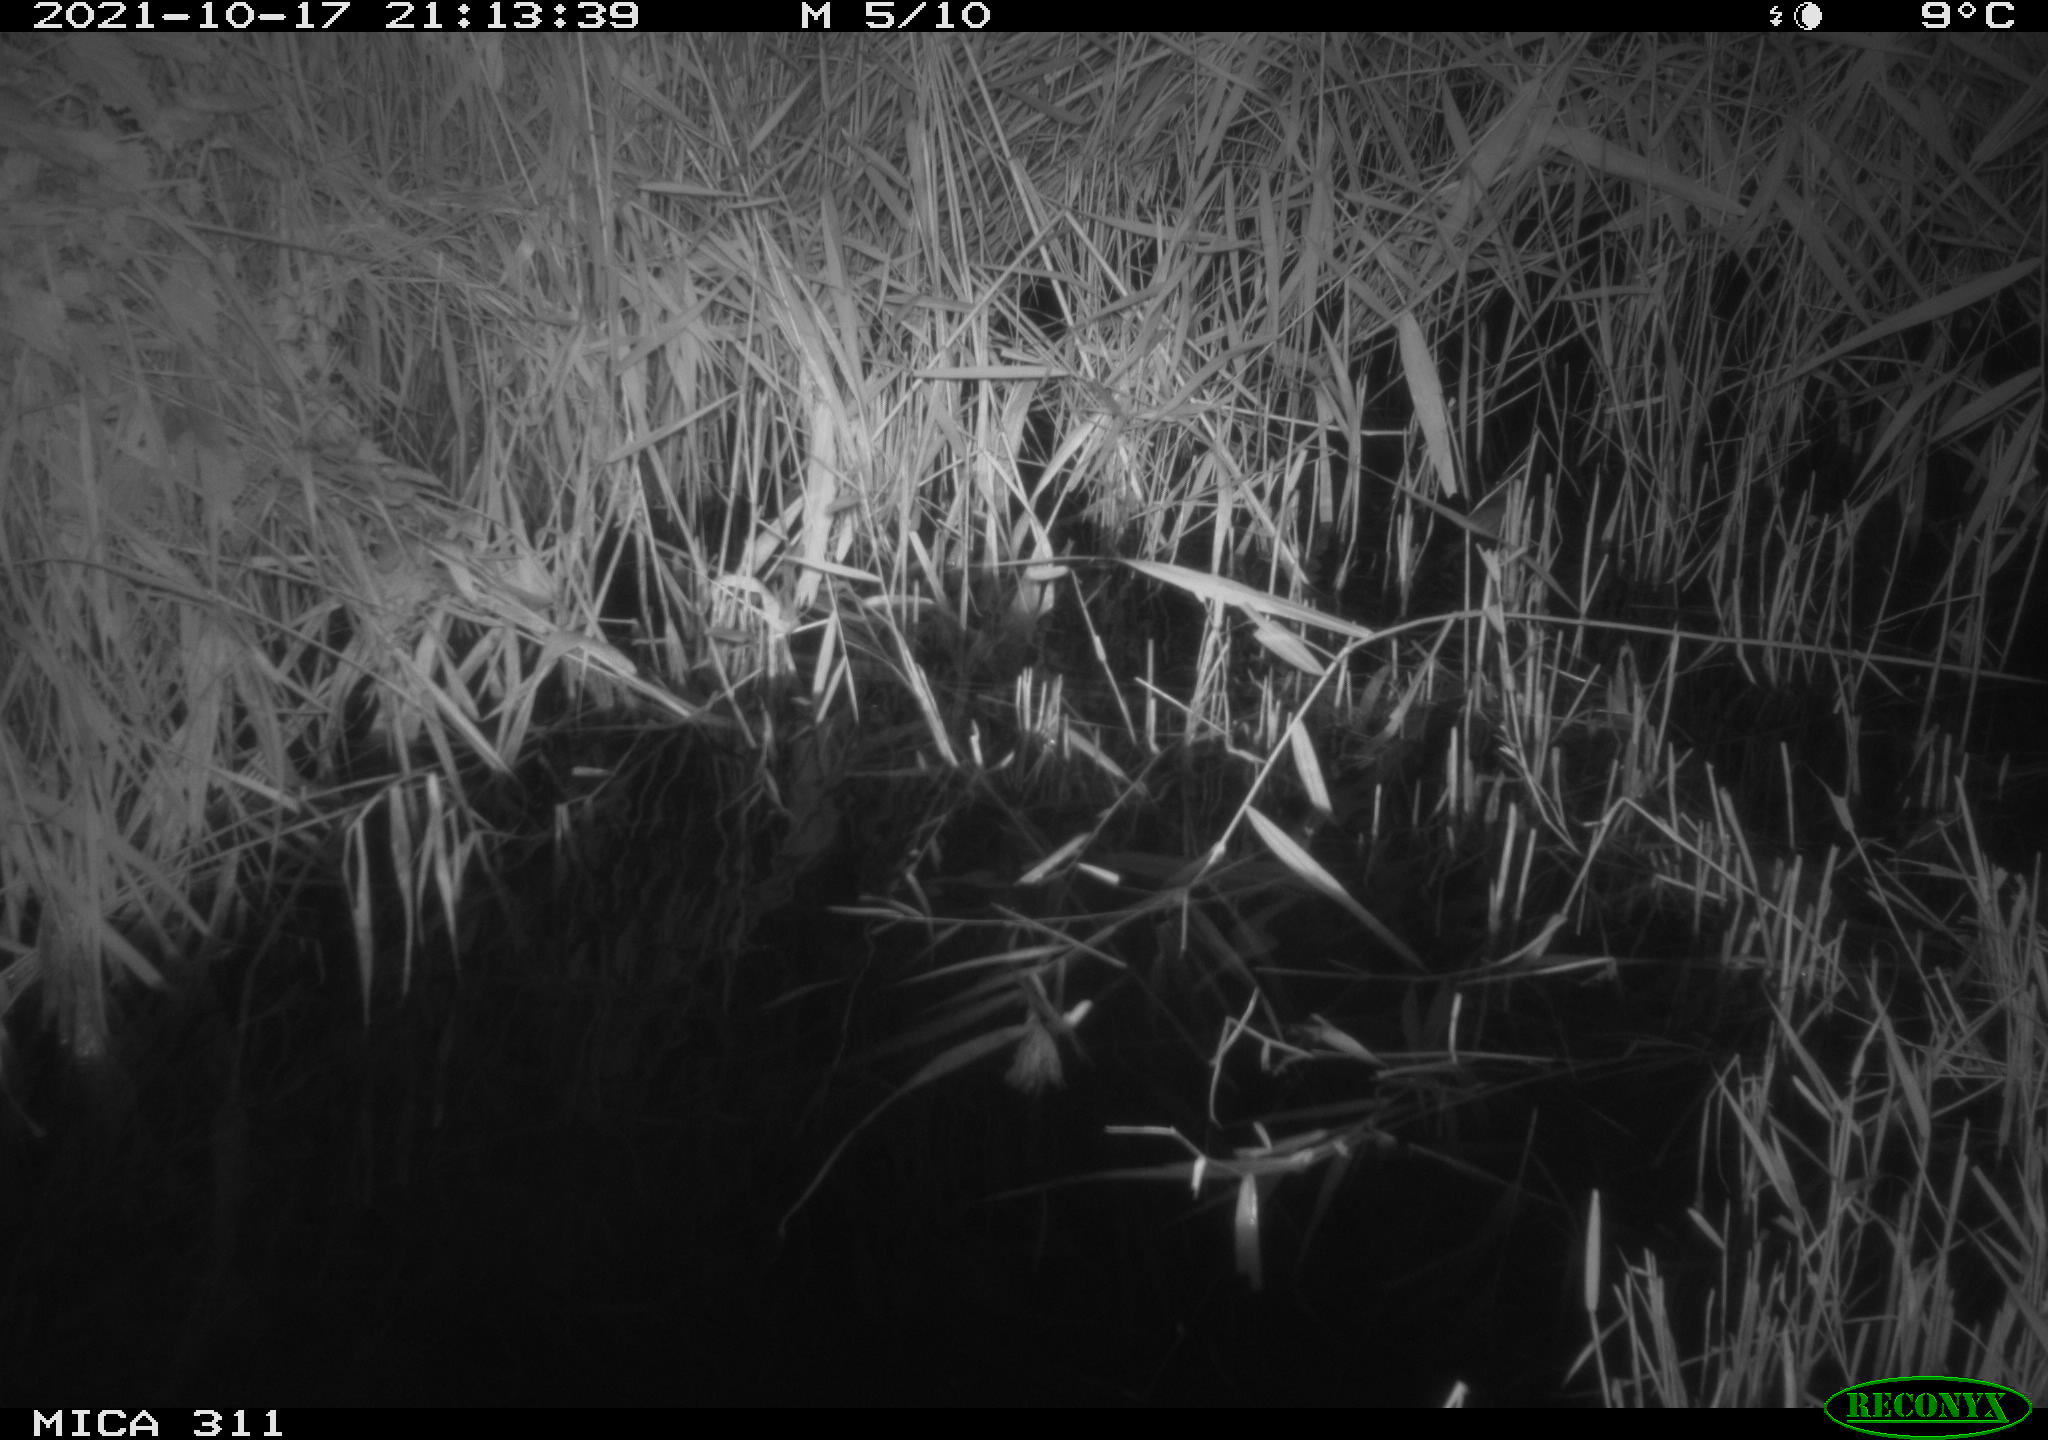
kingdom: Animalia
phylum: Chordata
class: Mammalia
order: Rodentia
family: Muridae
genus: Rattus
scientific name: Rattus norvegicus
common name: Brown rat
